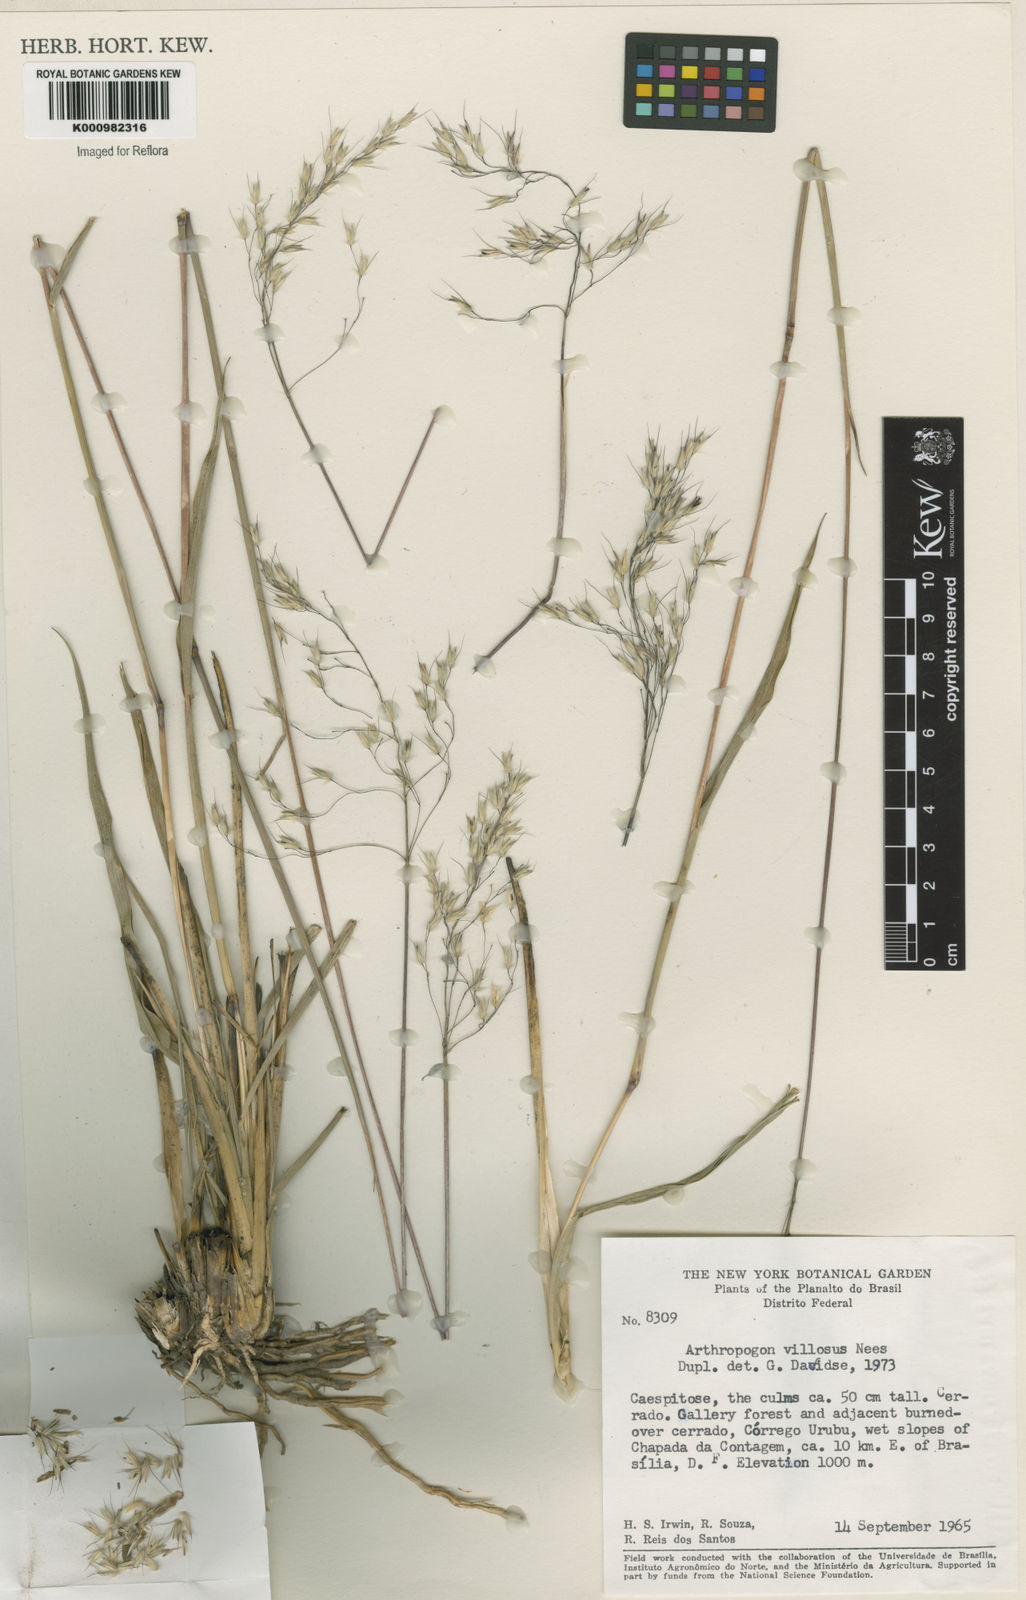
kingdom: Plantae
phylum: Tracheophyta
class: Liliopsida
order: Poales
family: Poaceae
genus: Arthropogon
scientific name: Arthropogon villosus
